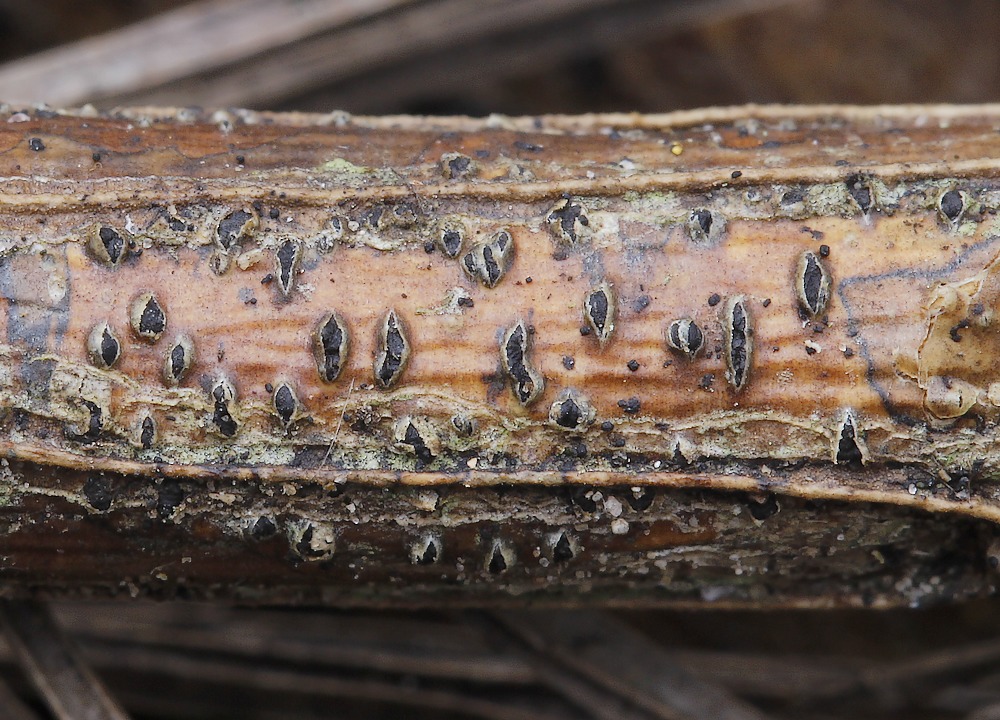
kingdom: Fungi
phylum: Ascomycota
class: Dothideomycetes
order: Botryosphaeriales
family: Botryosphaeriaceae
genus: Diplodia
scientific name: Diplodia oudemansii
